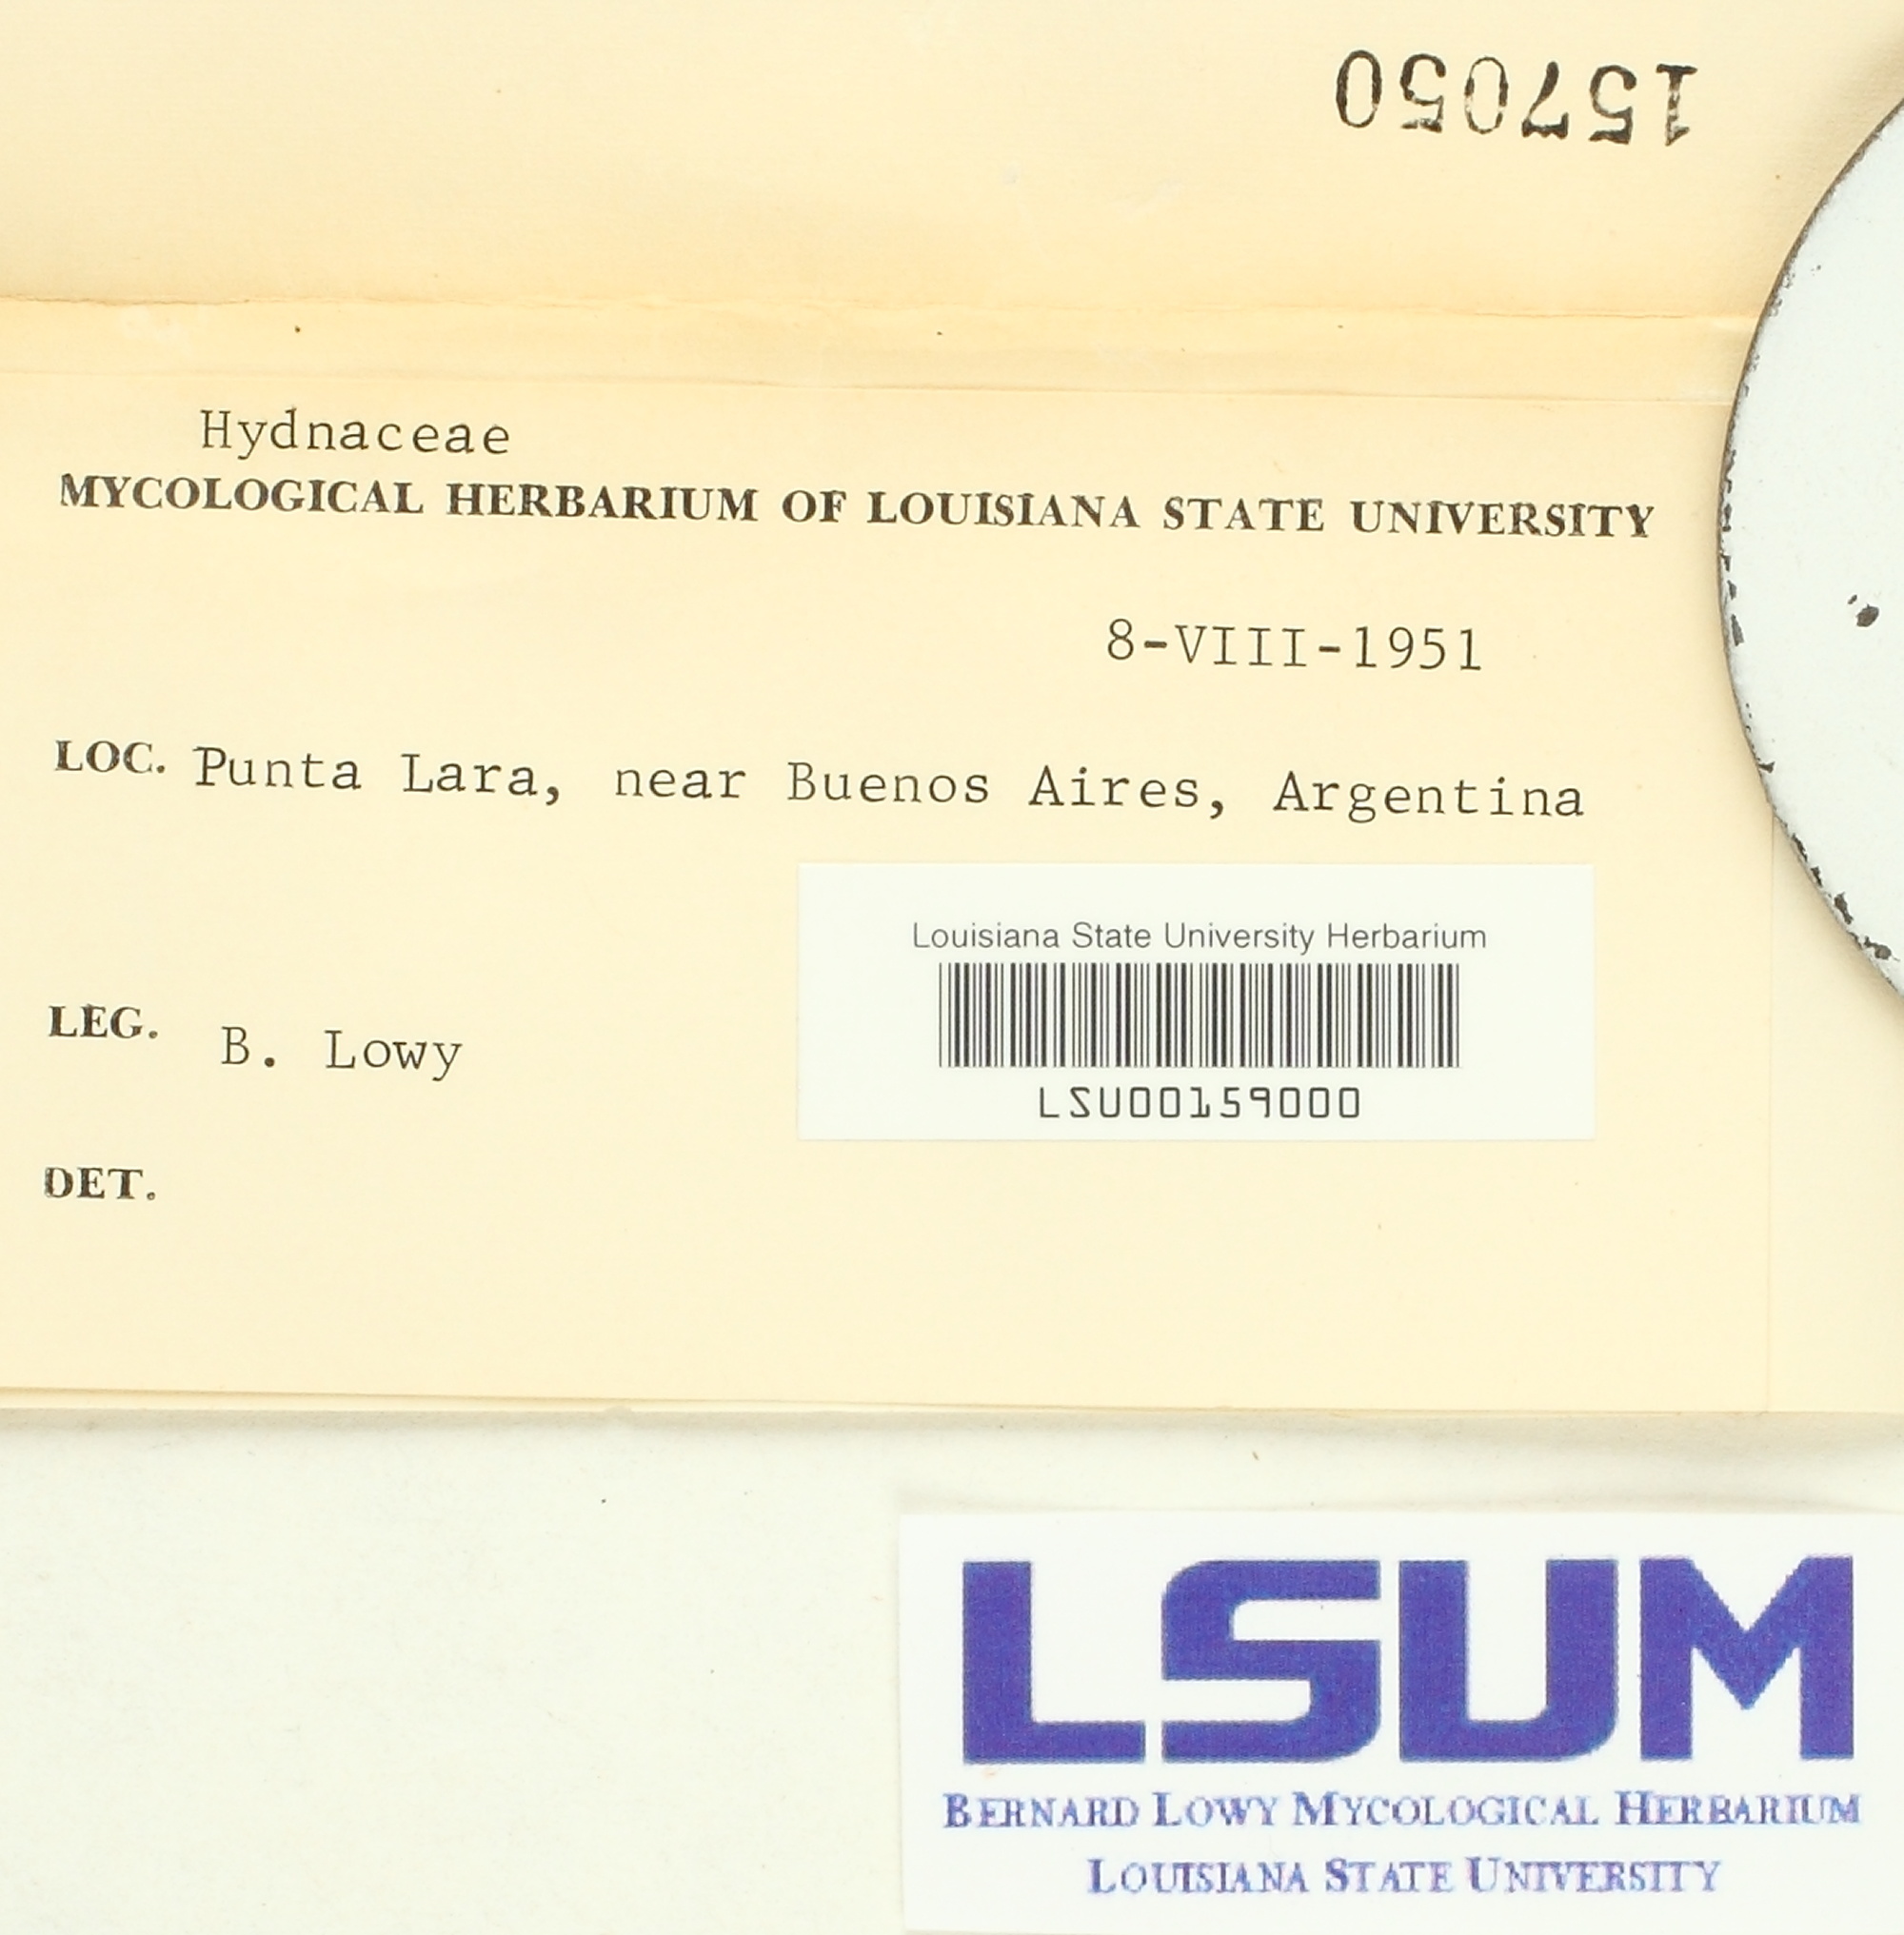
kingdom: Fungi
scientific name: Fungi
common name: Fungi
